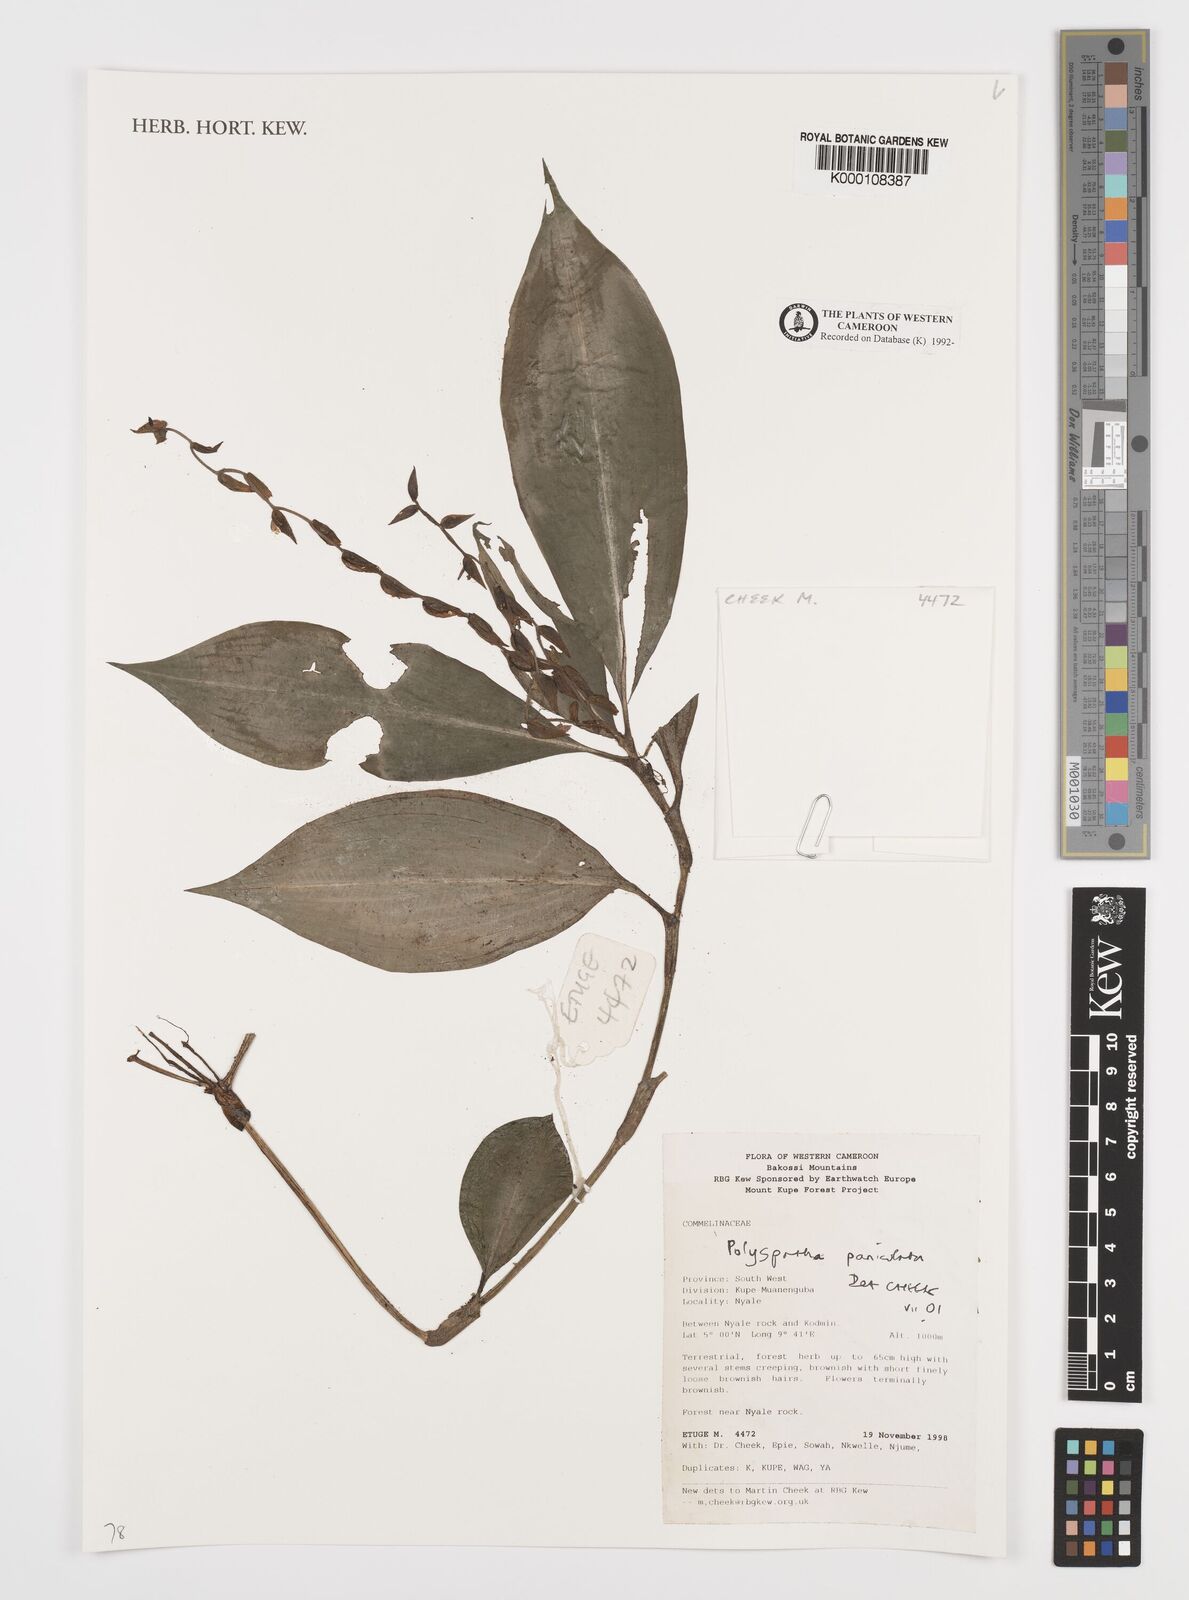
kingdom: Plantae
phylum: Tracheophyta
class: Liliopsida
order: Commelinales
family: Commelinaceae
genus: Polyspatha
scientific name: Polyspatha paniculata
